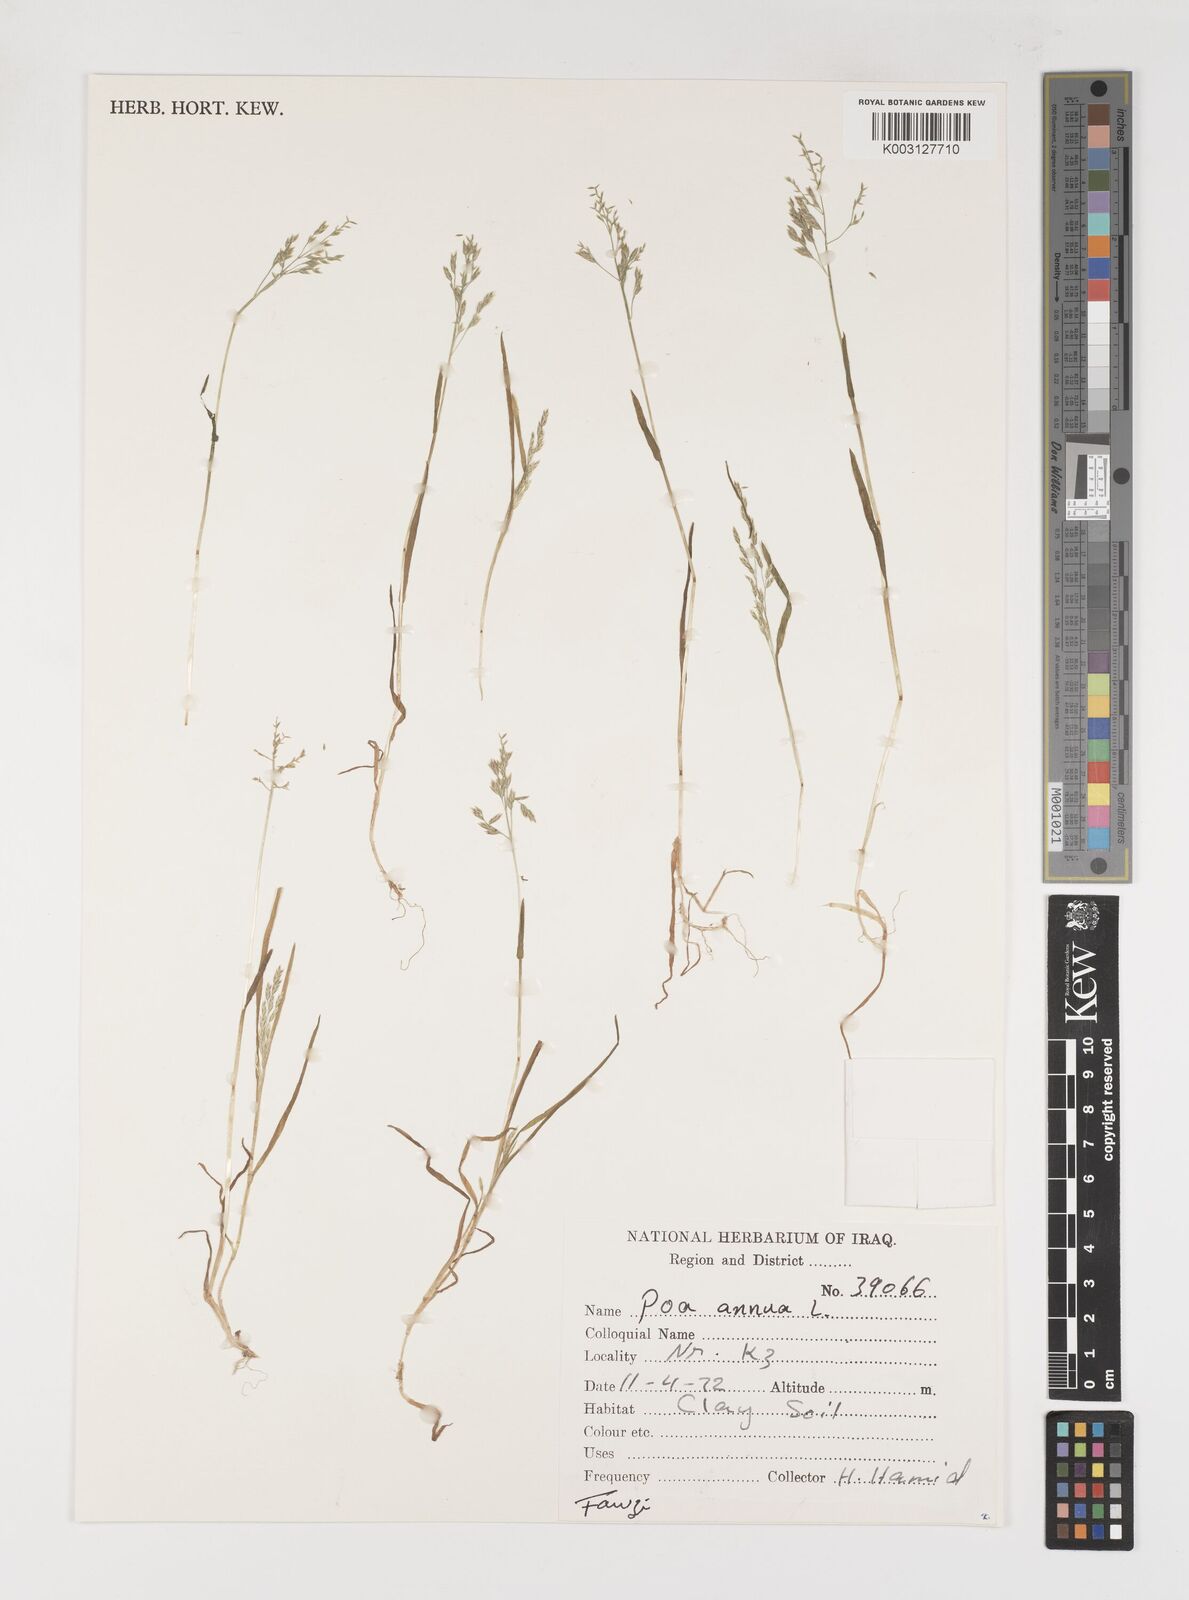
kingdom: Plantae
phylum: Tracheophyta
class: Liliopsida
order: Poales
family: Poaceae
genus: Poa
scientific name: Poa annua
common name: Annual bluegrass
